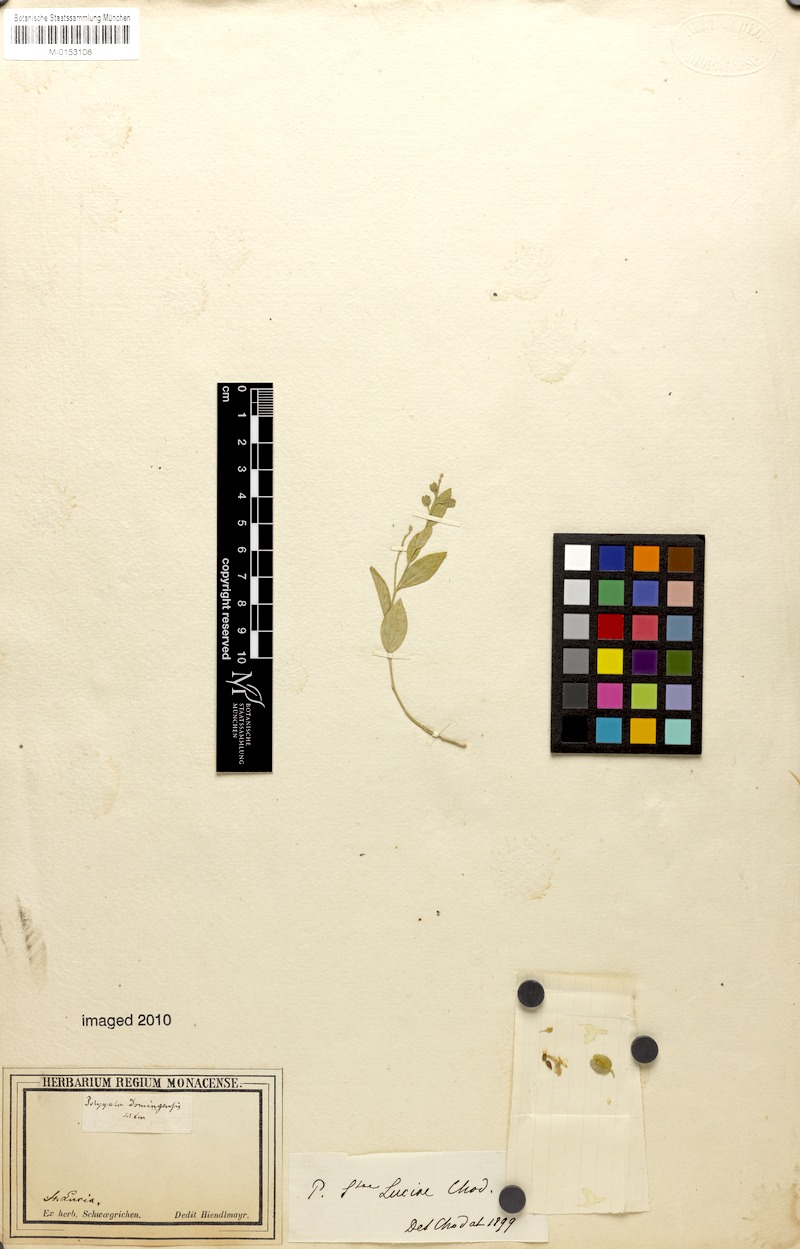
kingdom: Plantae
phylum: Tracheophyta
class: Magnoliopsida
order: Fabales
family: Polygalaceae
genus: Hebecarpa
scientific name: Hebecarpa americana
